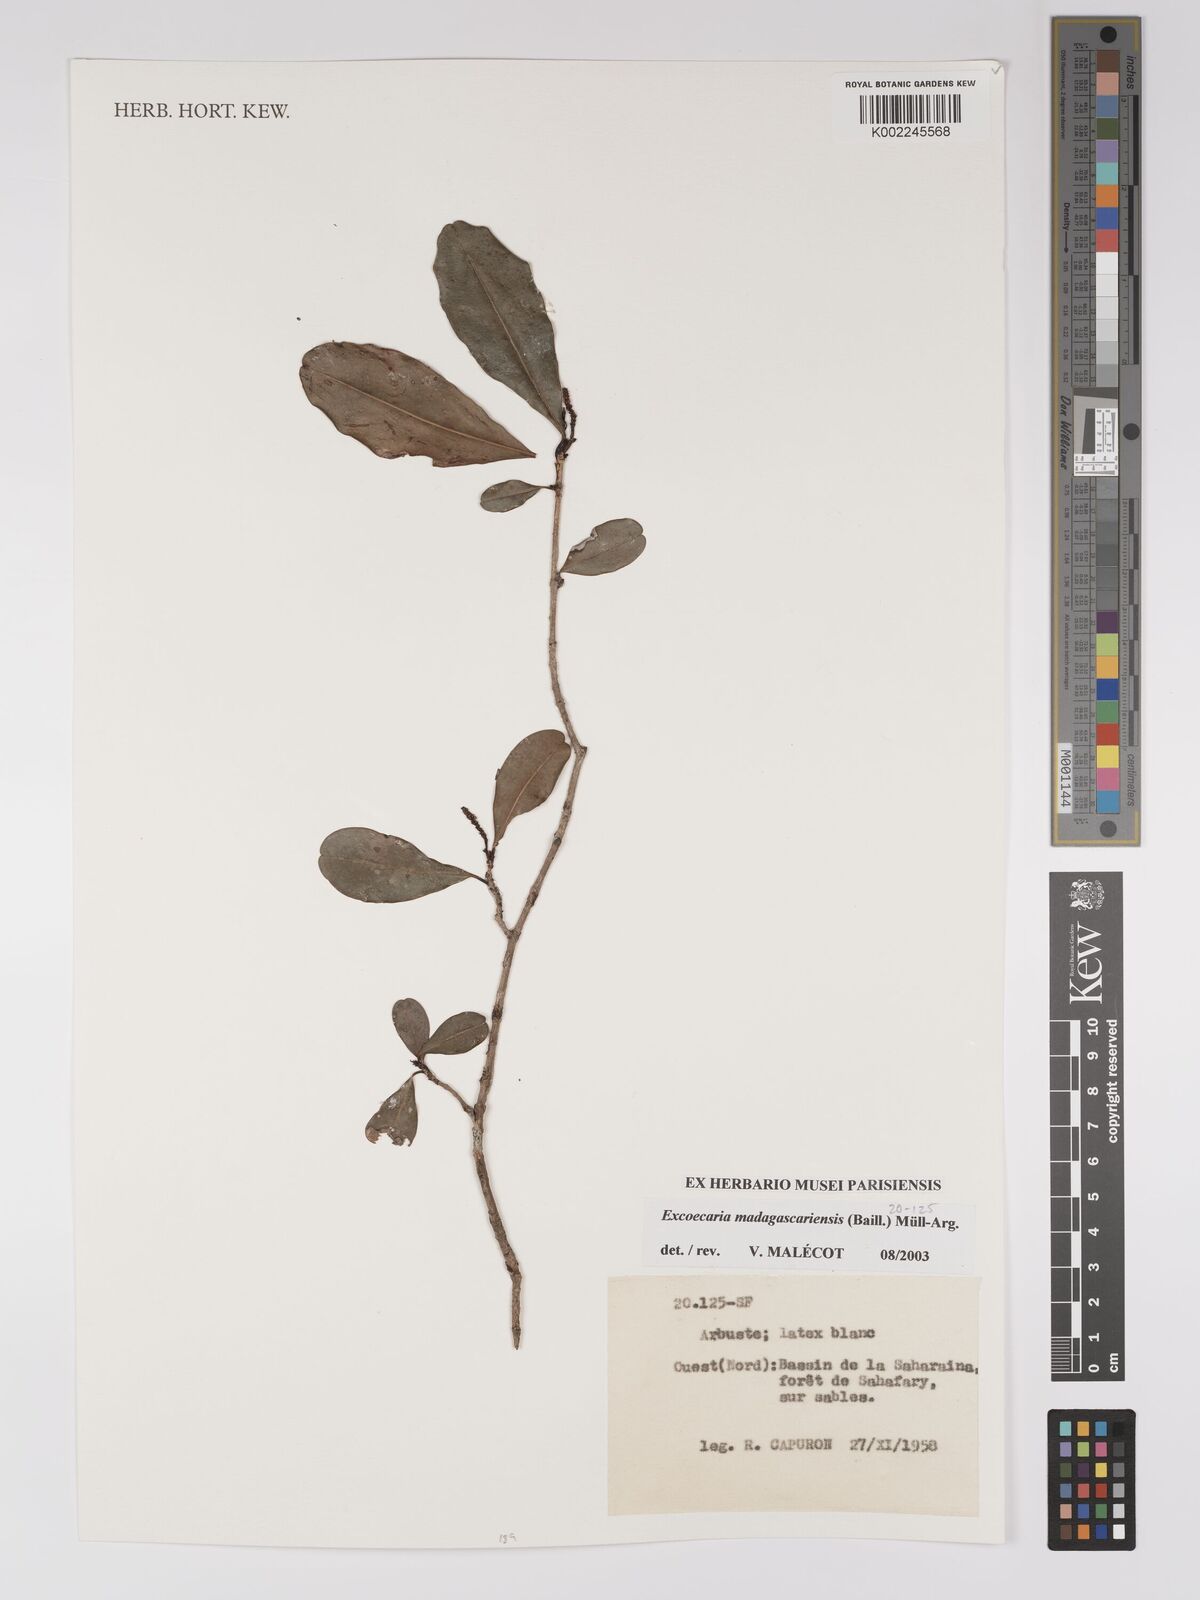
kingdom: Plantae
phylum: Tracheophyta
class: Magnoliopsida
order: Malpighiales
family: Euphorbiaceae
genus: Excoecaria
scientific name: Excoecaria madagascariensis
